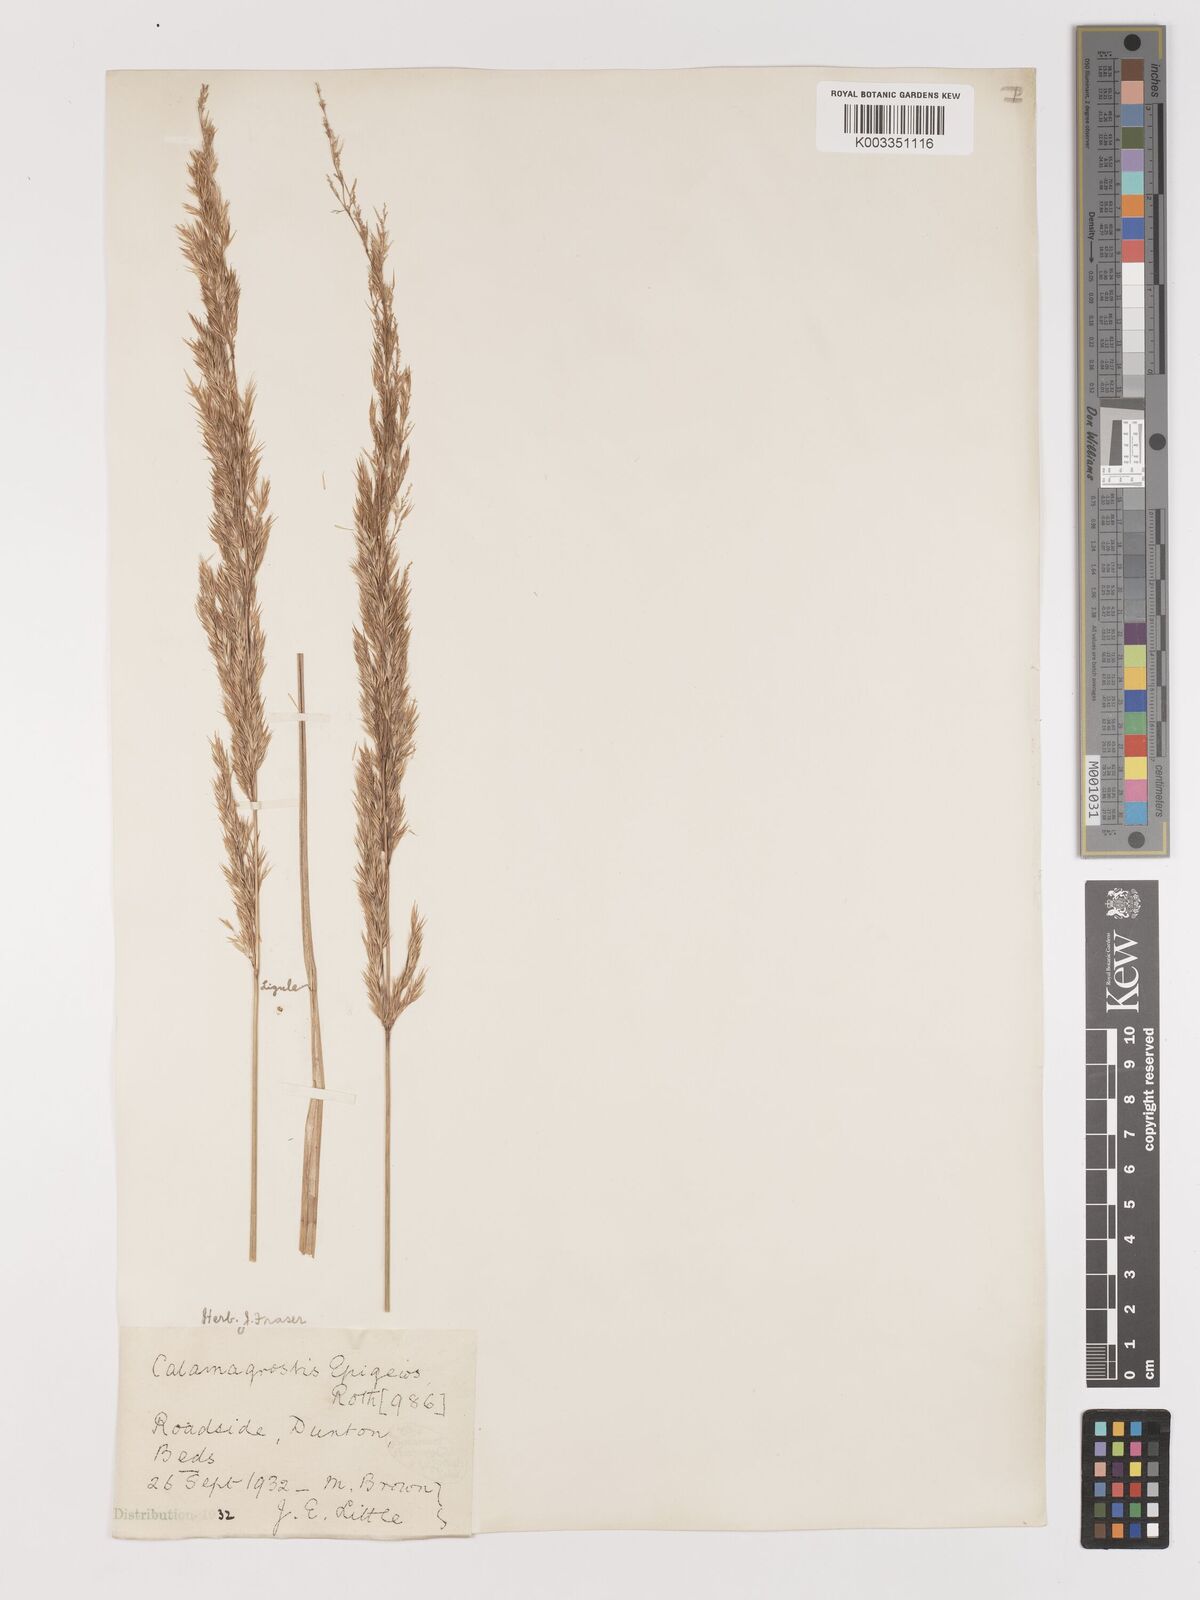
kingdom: Plantae
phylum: Tracheophyta
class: Liliopsida
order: Poales
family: Poaceae
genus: Calamagrostis
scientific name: Calamagrostis
